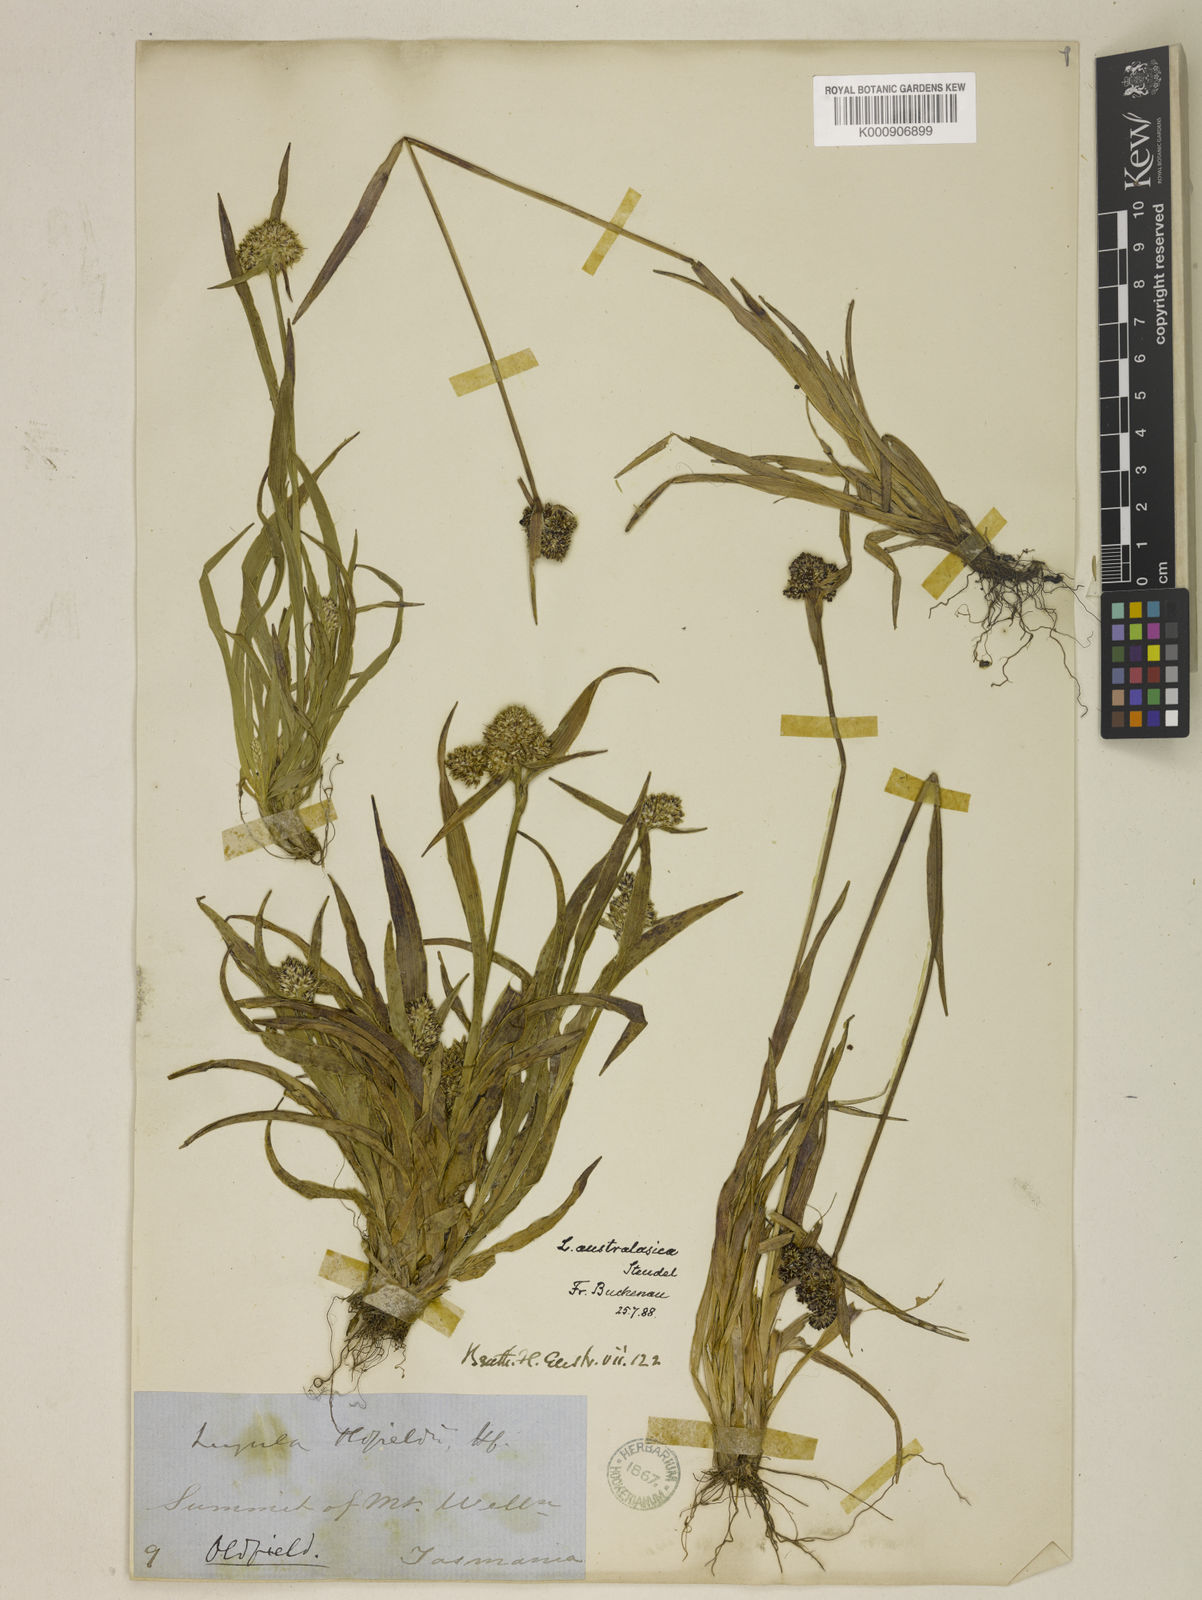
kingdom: Plantae
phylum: Tracheophyta
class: Liliopsida
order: Poales
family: Juncaceae
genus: Luzula
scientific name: Luzula australasica
